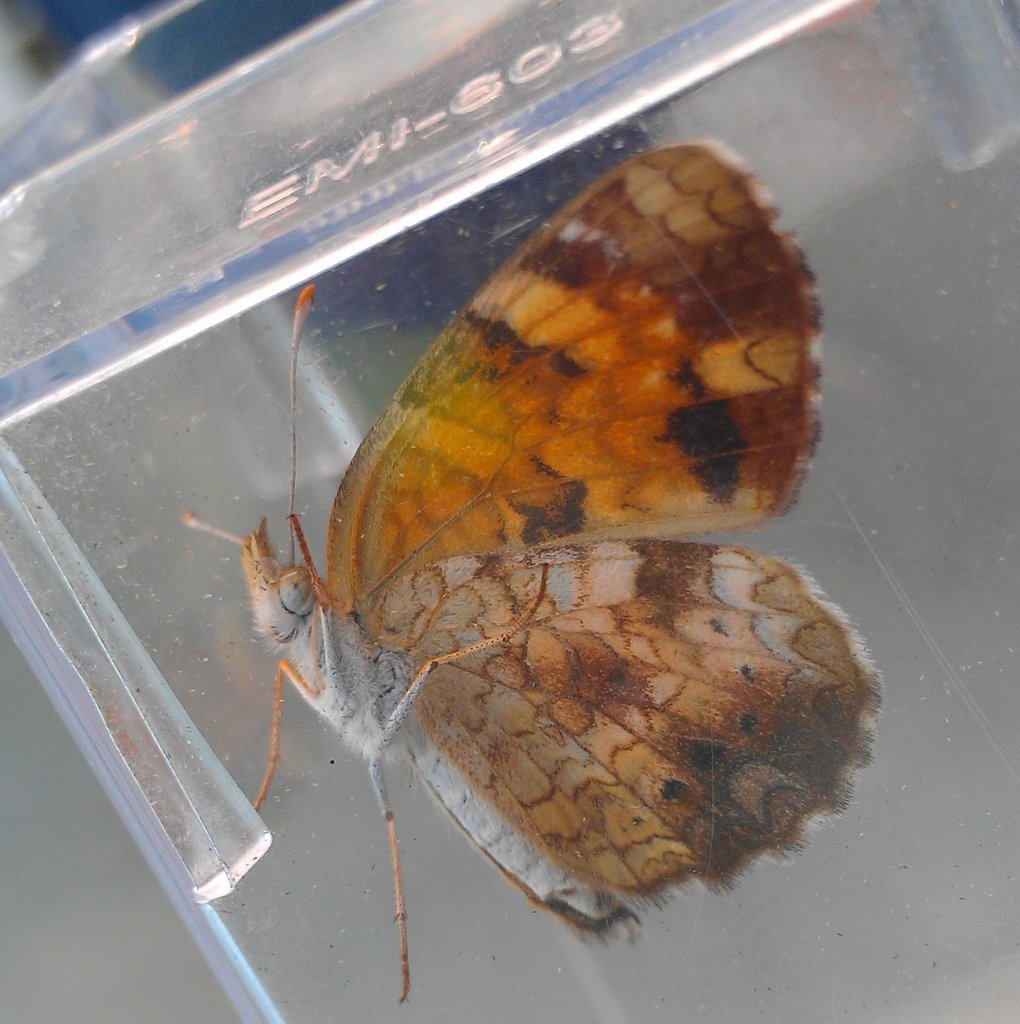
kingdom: Animalia
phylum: Arthropoda
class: Insecta
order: Lepidoptera
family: Nymphalidae
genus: Phyciodes
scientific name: Phyciodes tharos
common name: Northern Crescent
